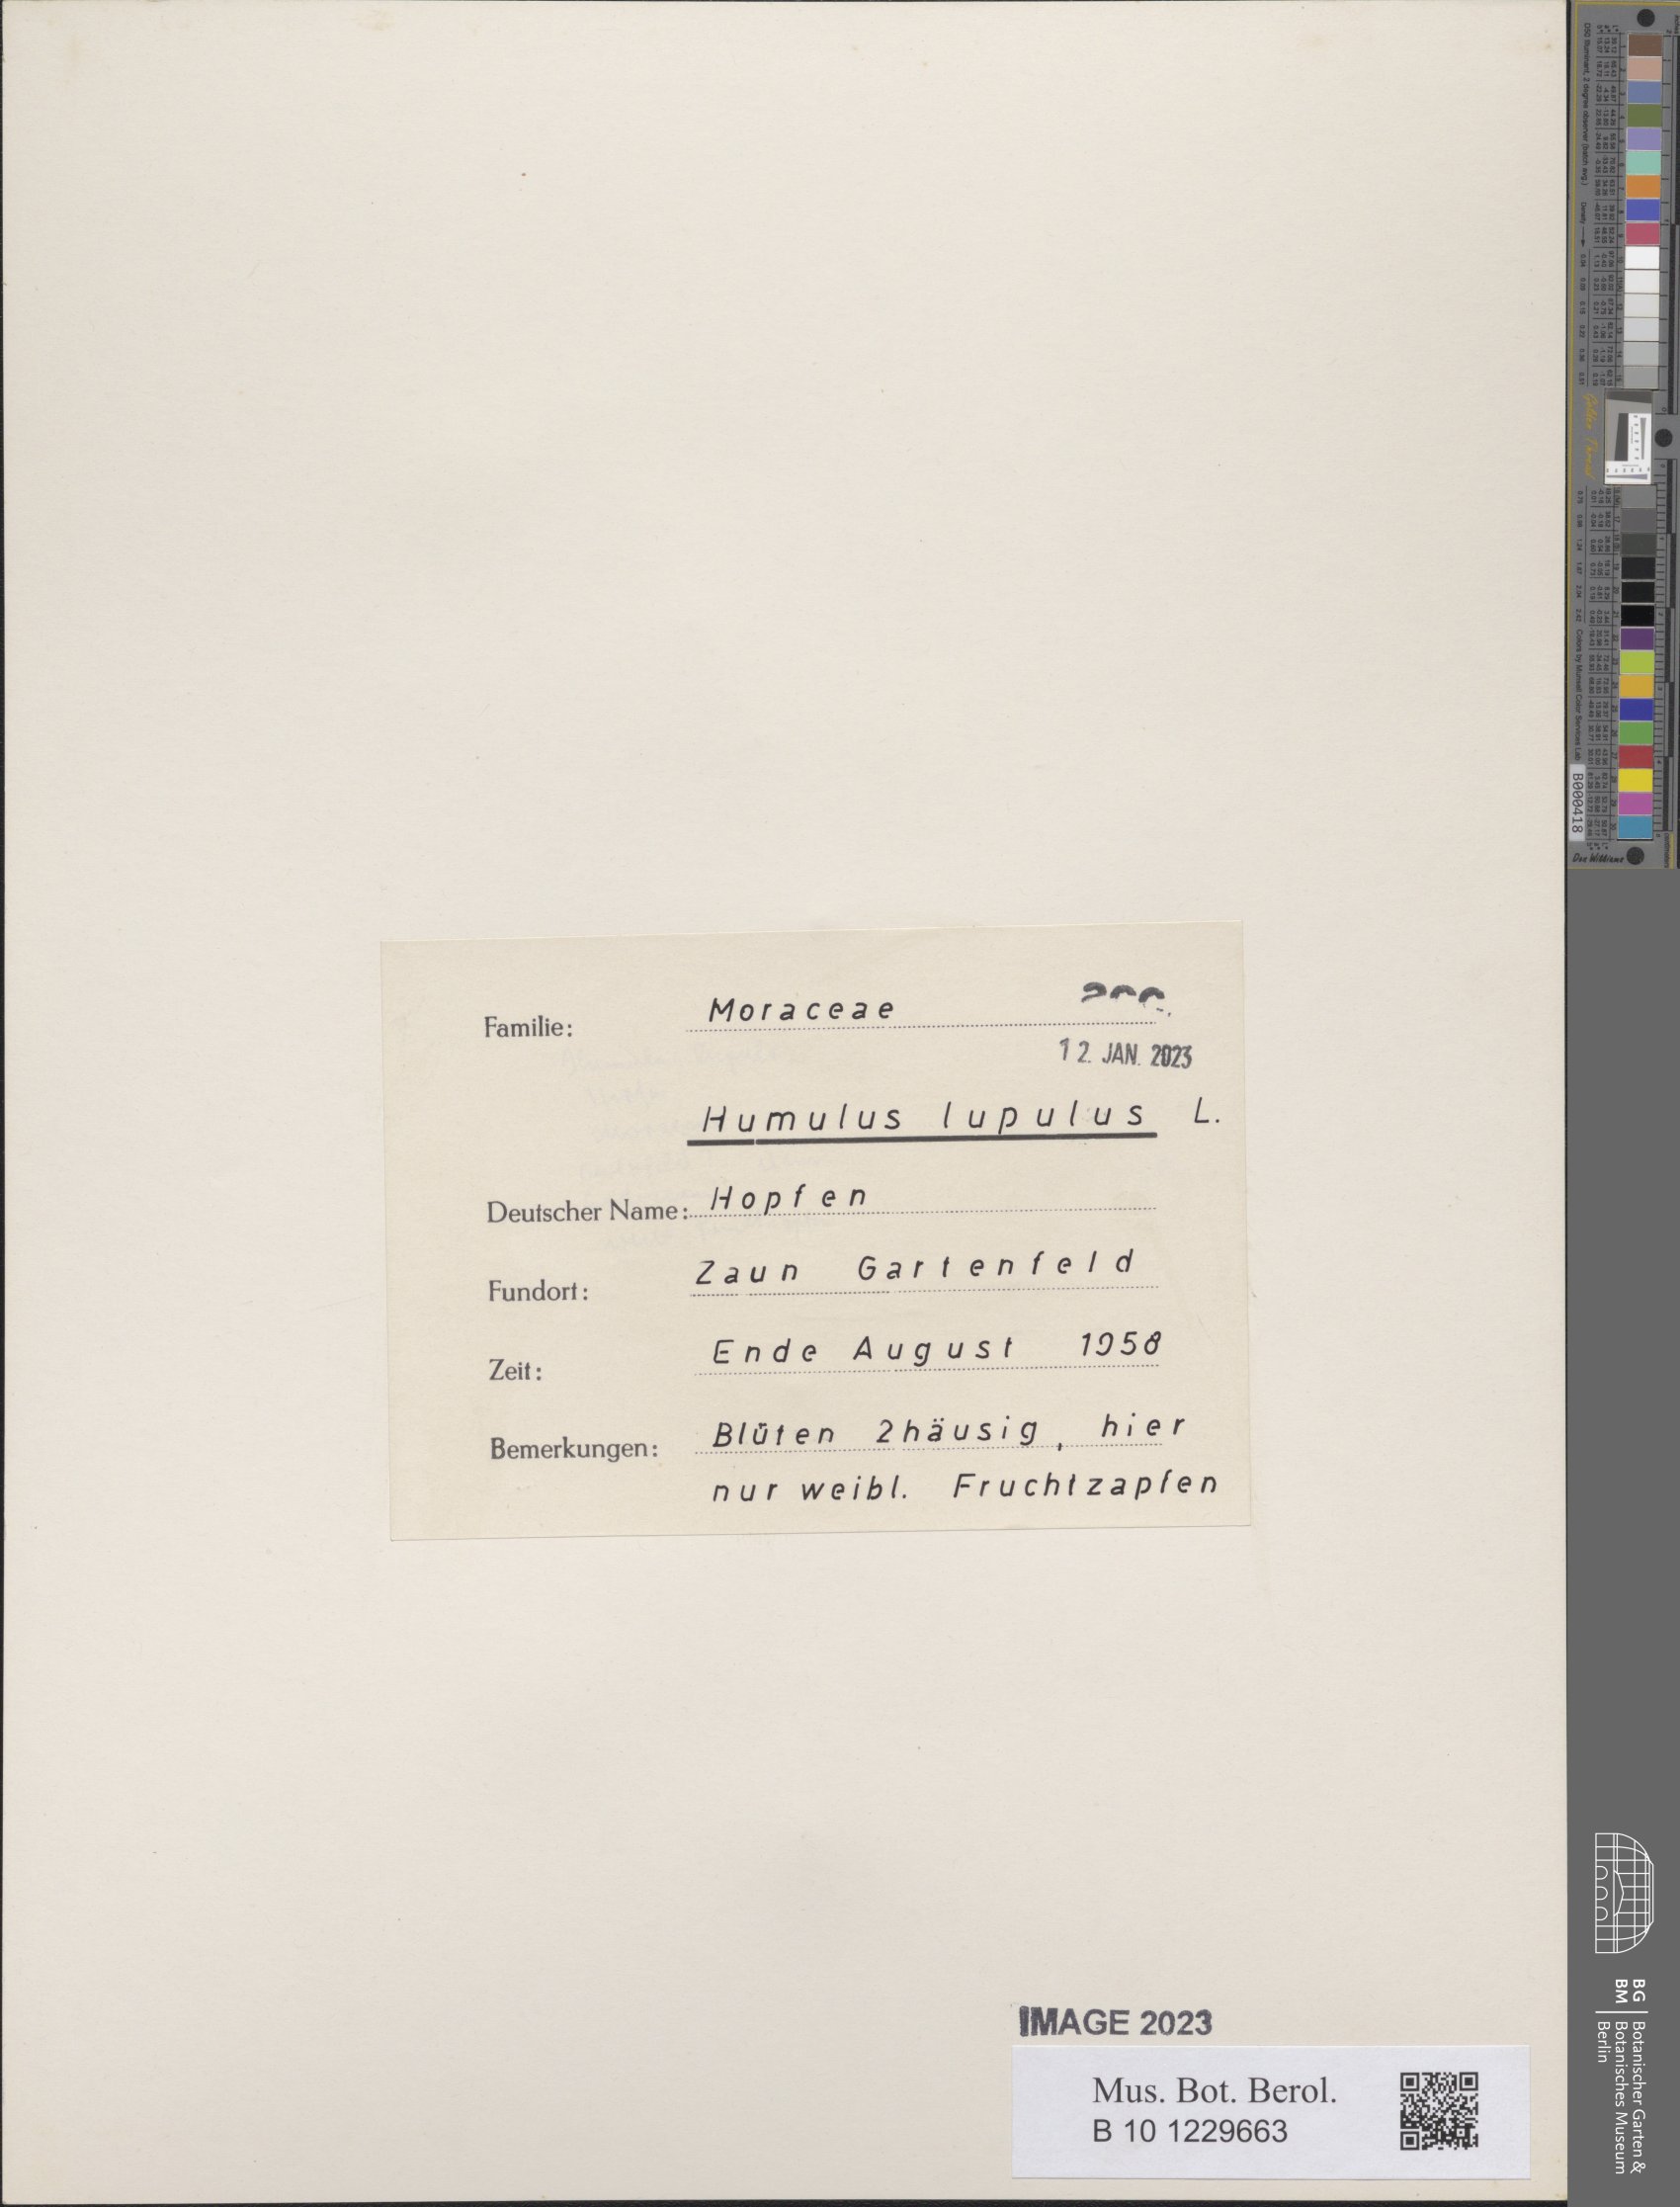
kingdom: Plantae
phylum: Tracheophyta
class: Magnoliopsida
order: Rosales
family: Cannabaceae
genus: Humulus
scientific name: Humulus lupulus
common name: Hop
